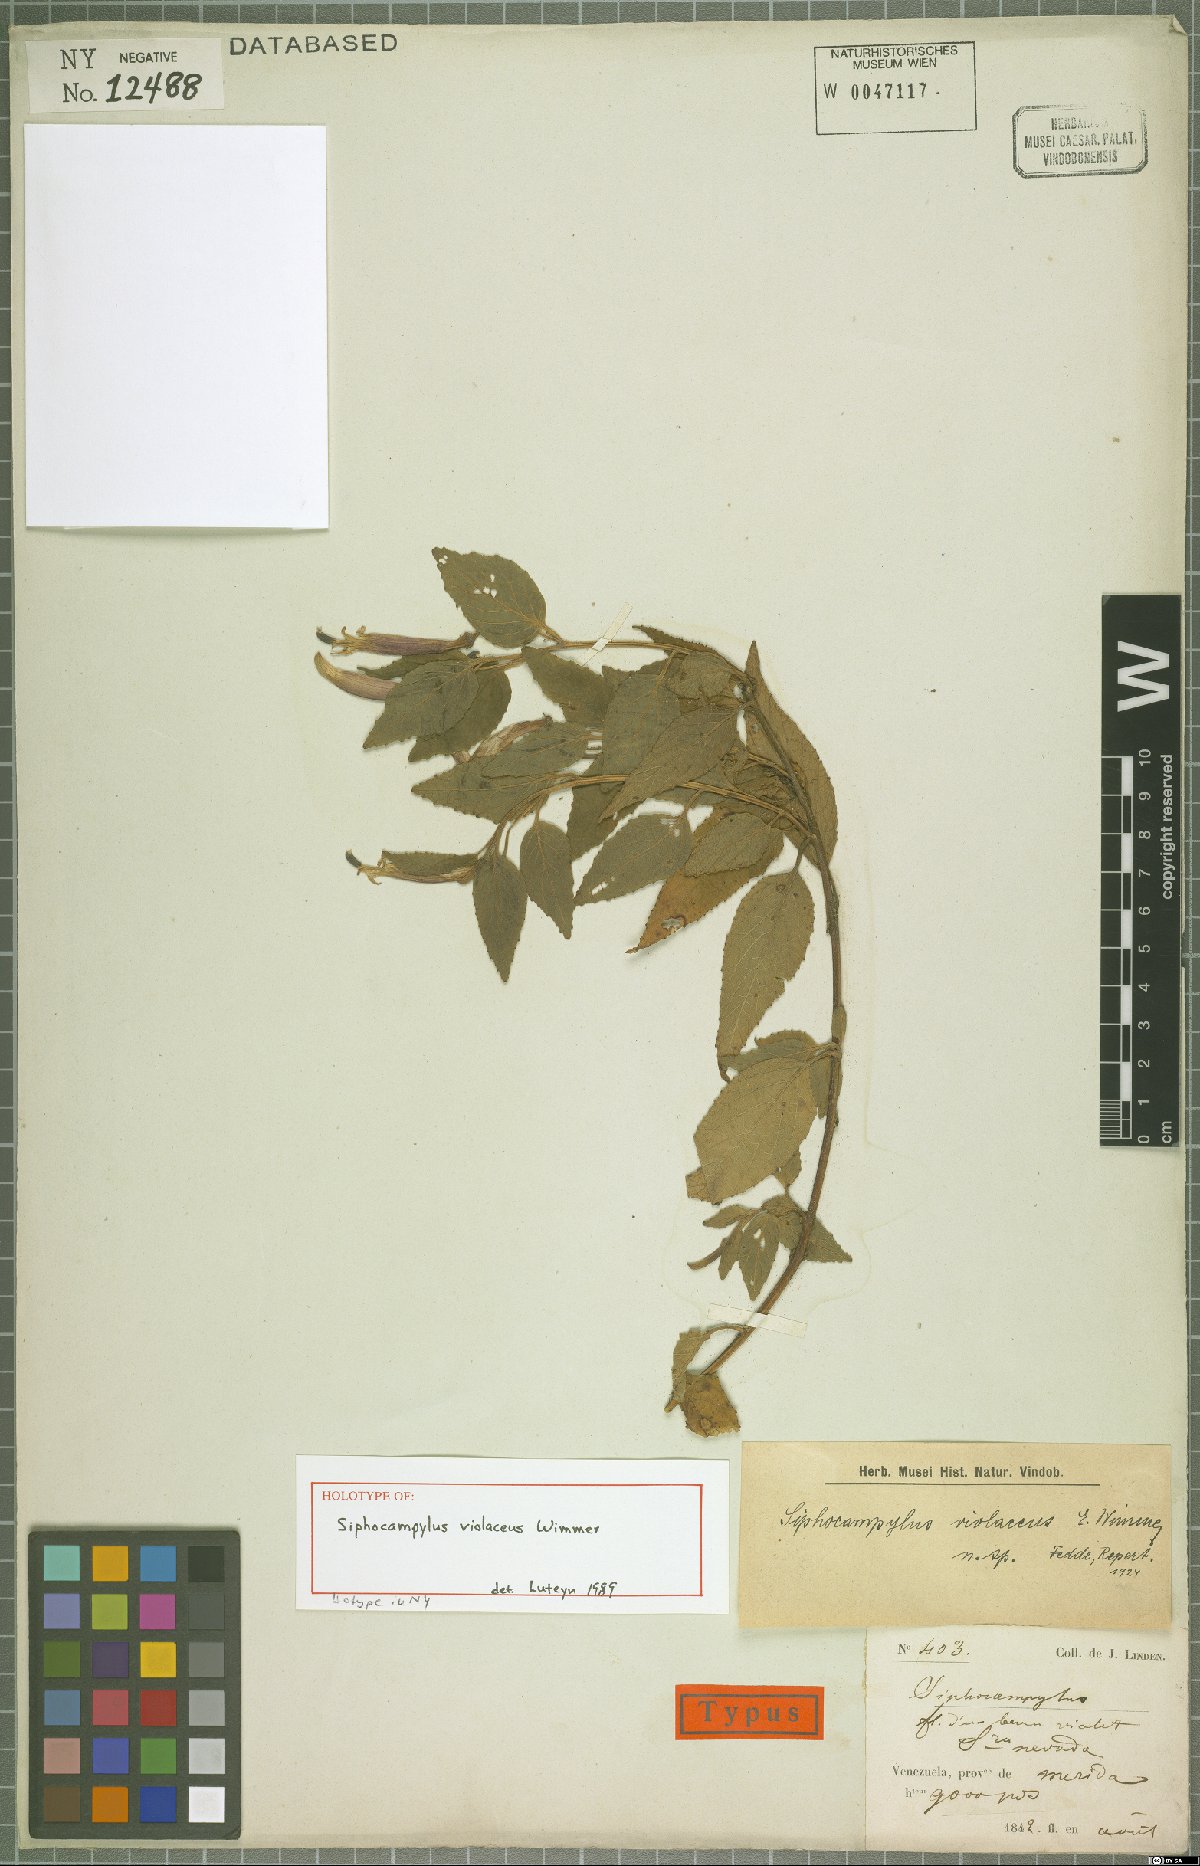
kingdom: Plantae
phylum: Tracheophyta
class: Magnoliopsida
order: Asterales
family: Campanulaceae
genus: Siphocampylus
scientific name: Siphocampylus violaceus
